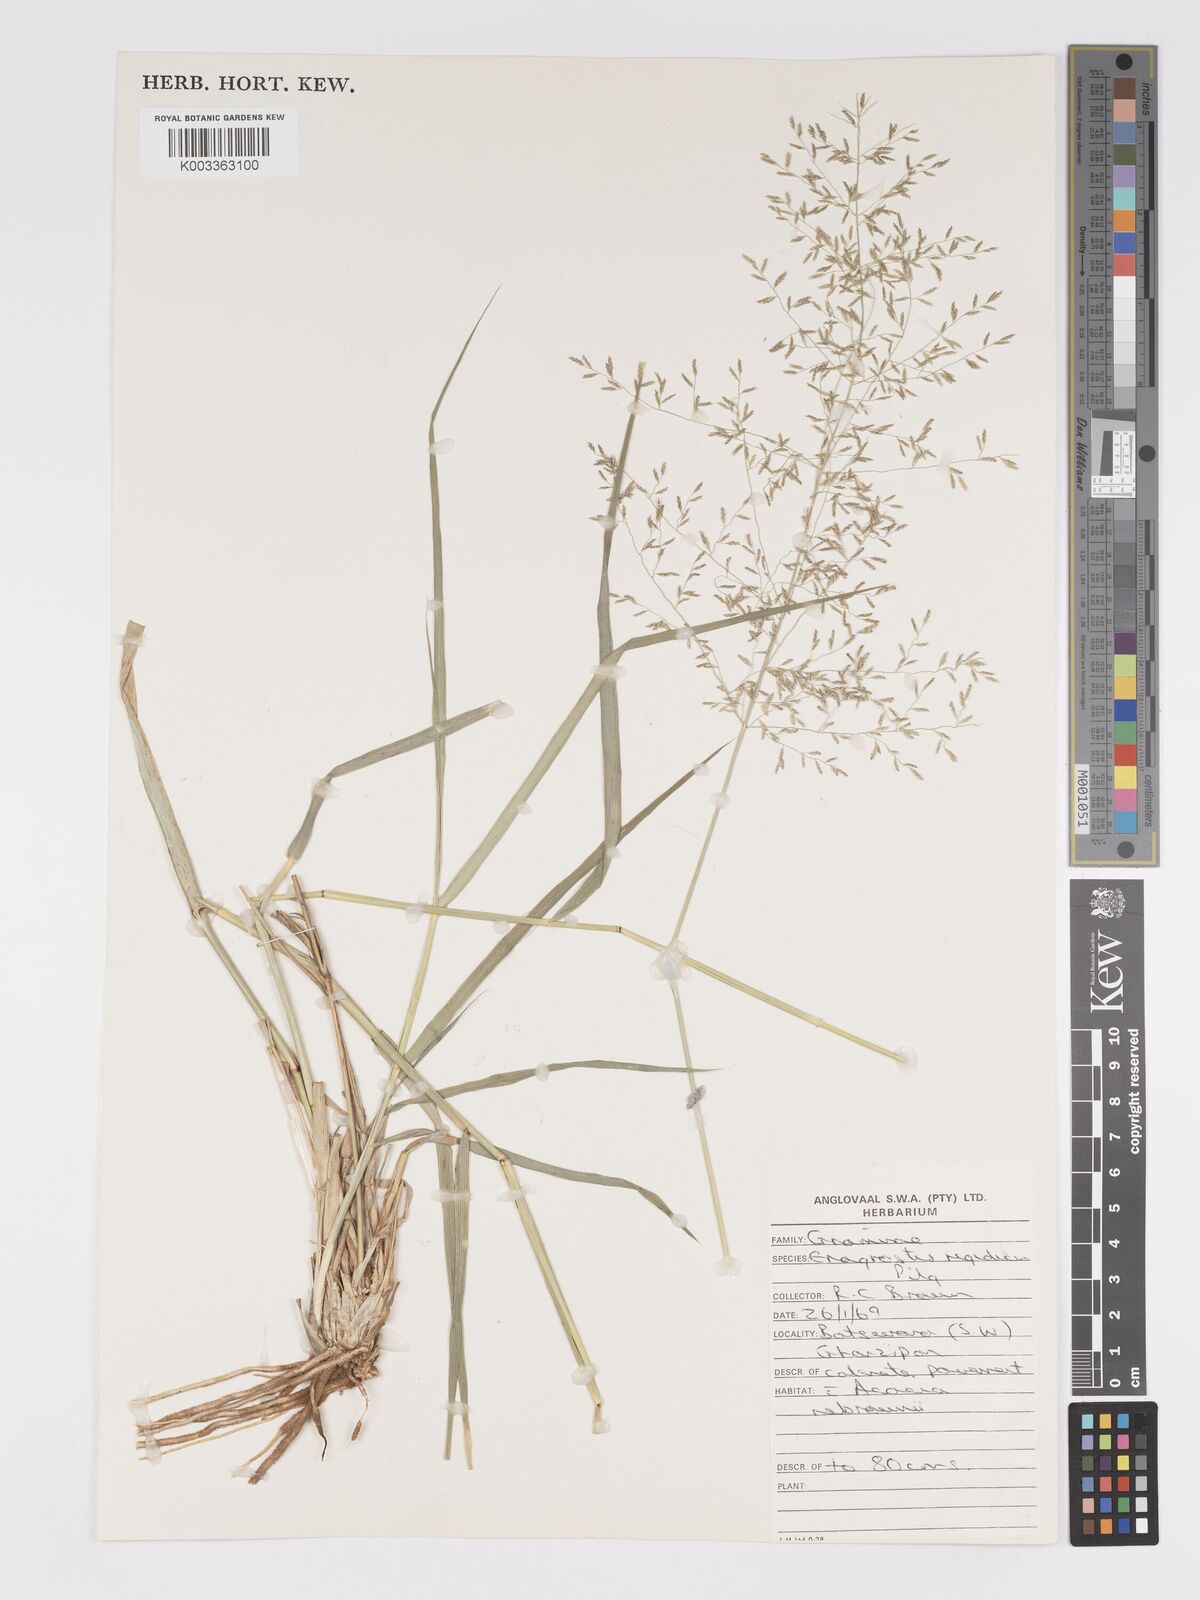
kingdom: Plantae
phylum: Tracheophyta
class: Liliopsida
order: Poales
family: Poaceae
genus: Eragrostis
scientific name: Eragrostis cylindriflora
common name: Cylinderflower lovegrass
